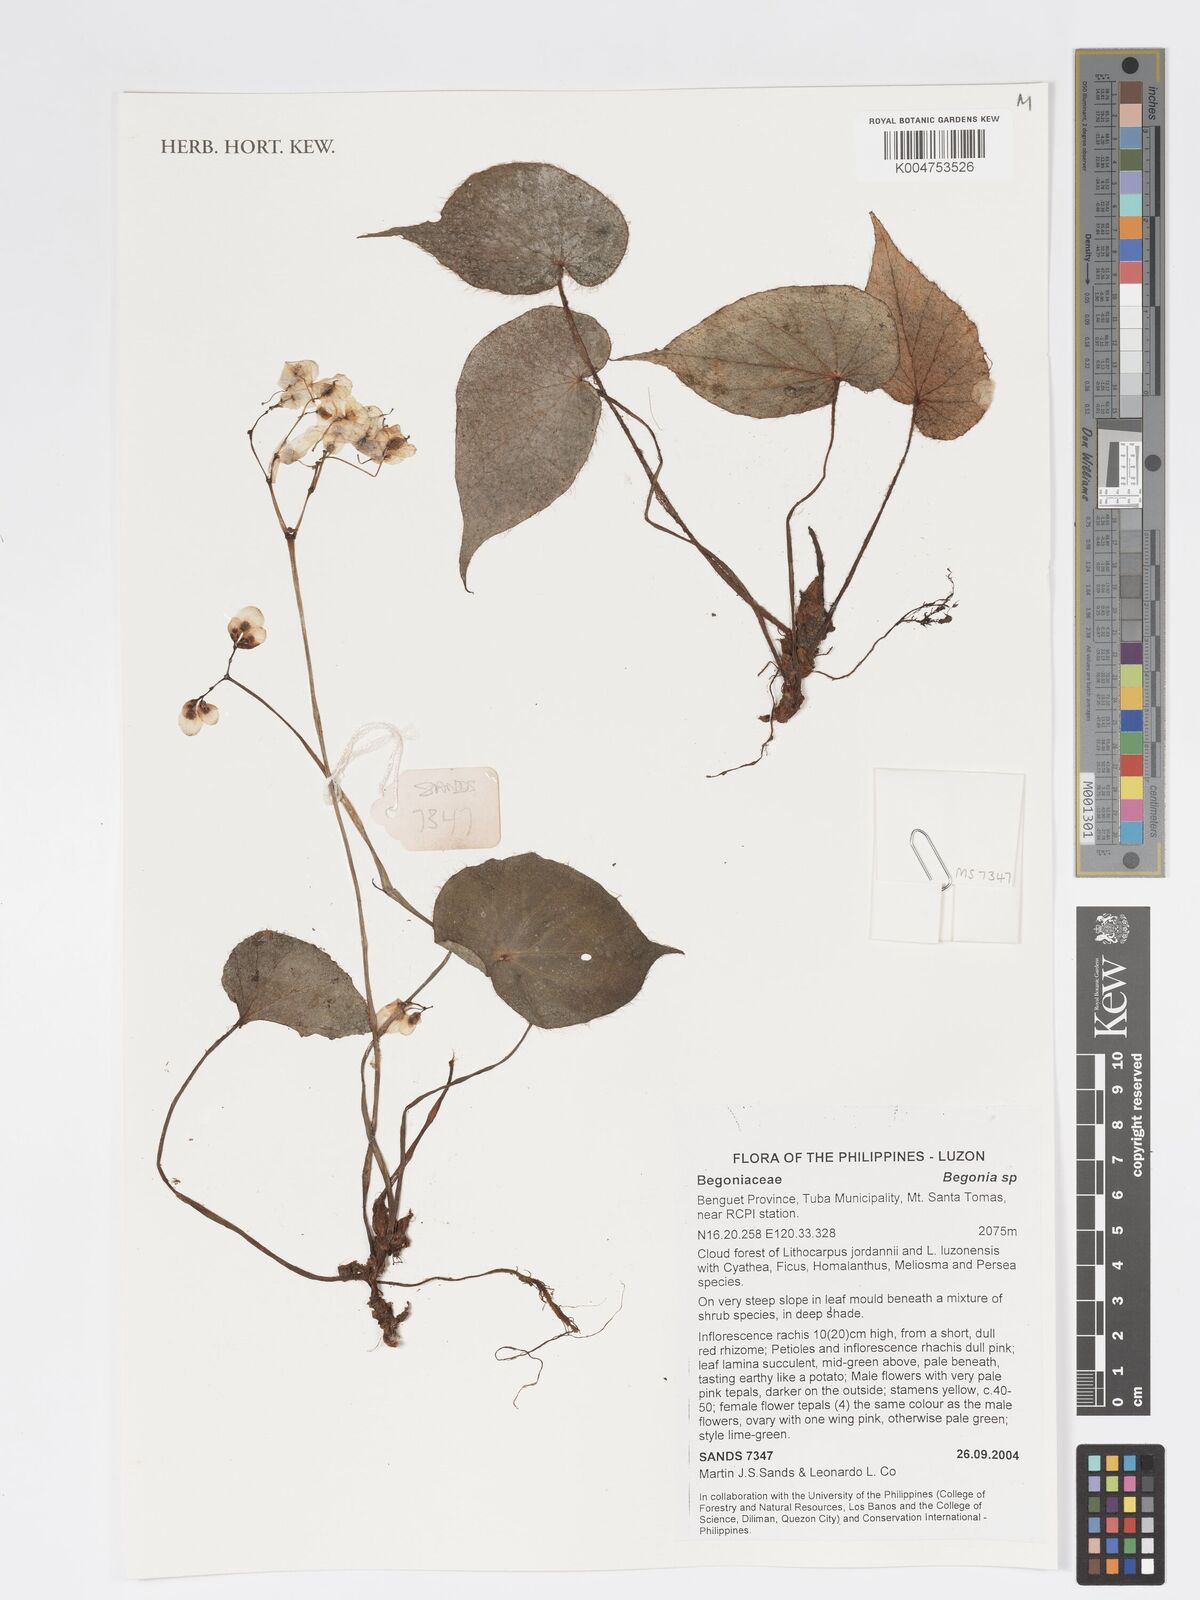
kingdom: Plantae
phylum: Tracheophyta
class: Magnoliopsida
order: Cucurbitales
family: Begoniaceae
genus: Begonia
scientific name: Begonia
